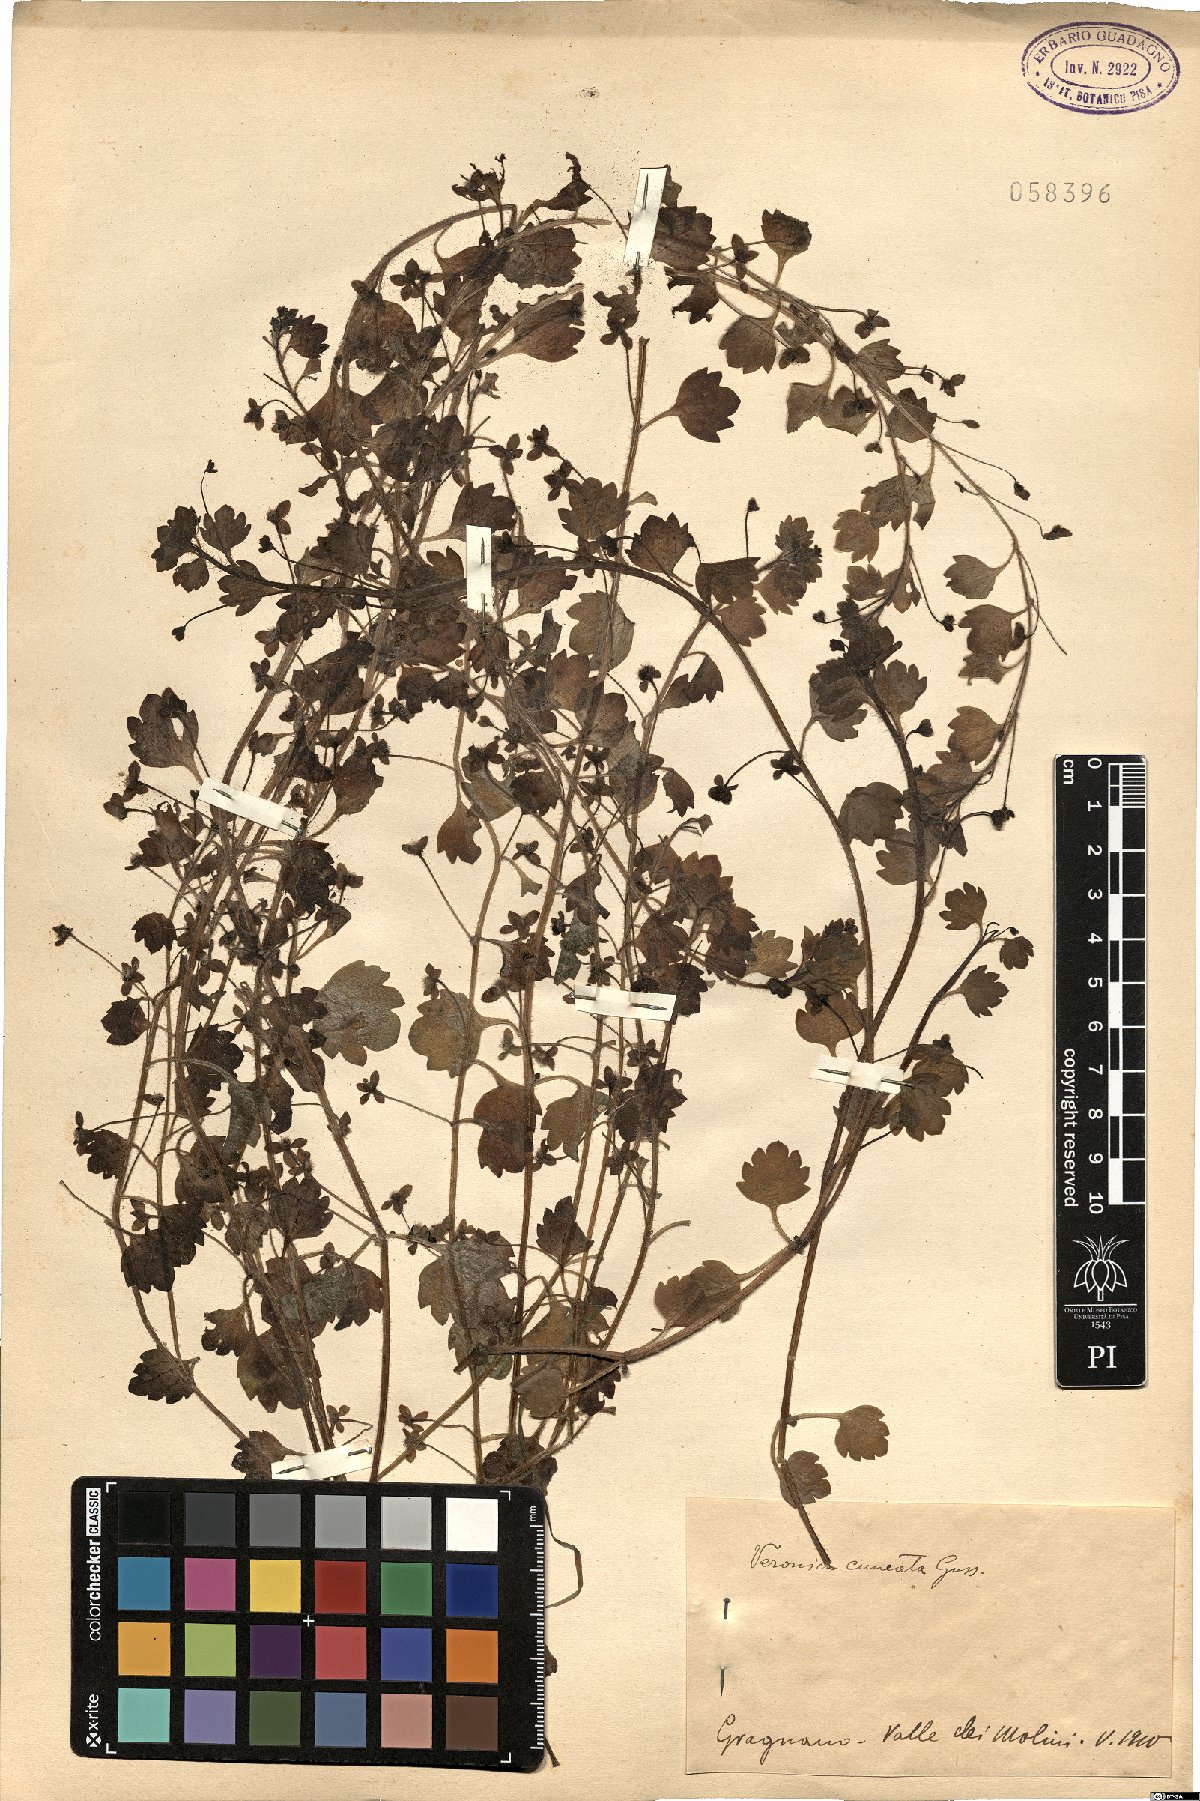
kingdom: Plantae
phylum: Tracheophyta
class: Magnoliopsida
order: Lamiales
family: Plantaginaceae
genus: Veronica
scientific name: Veronica cymbalaria
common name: Pale speedwell
